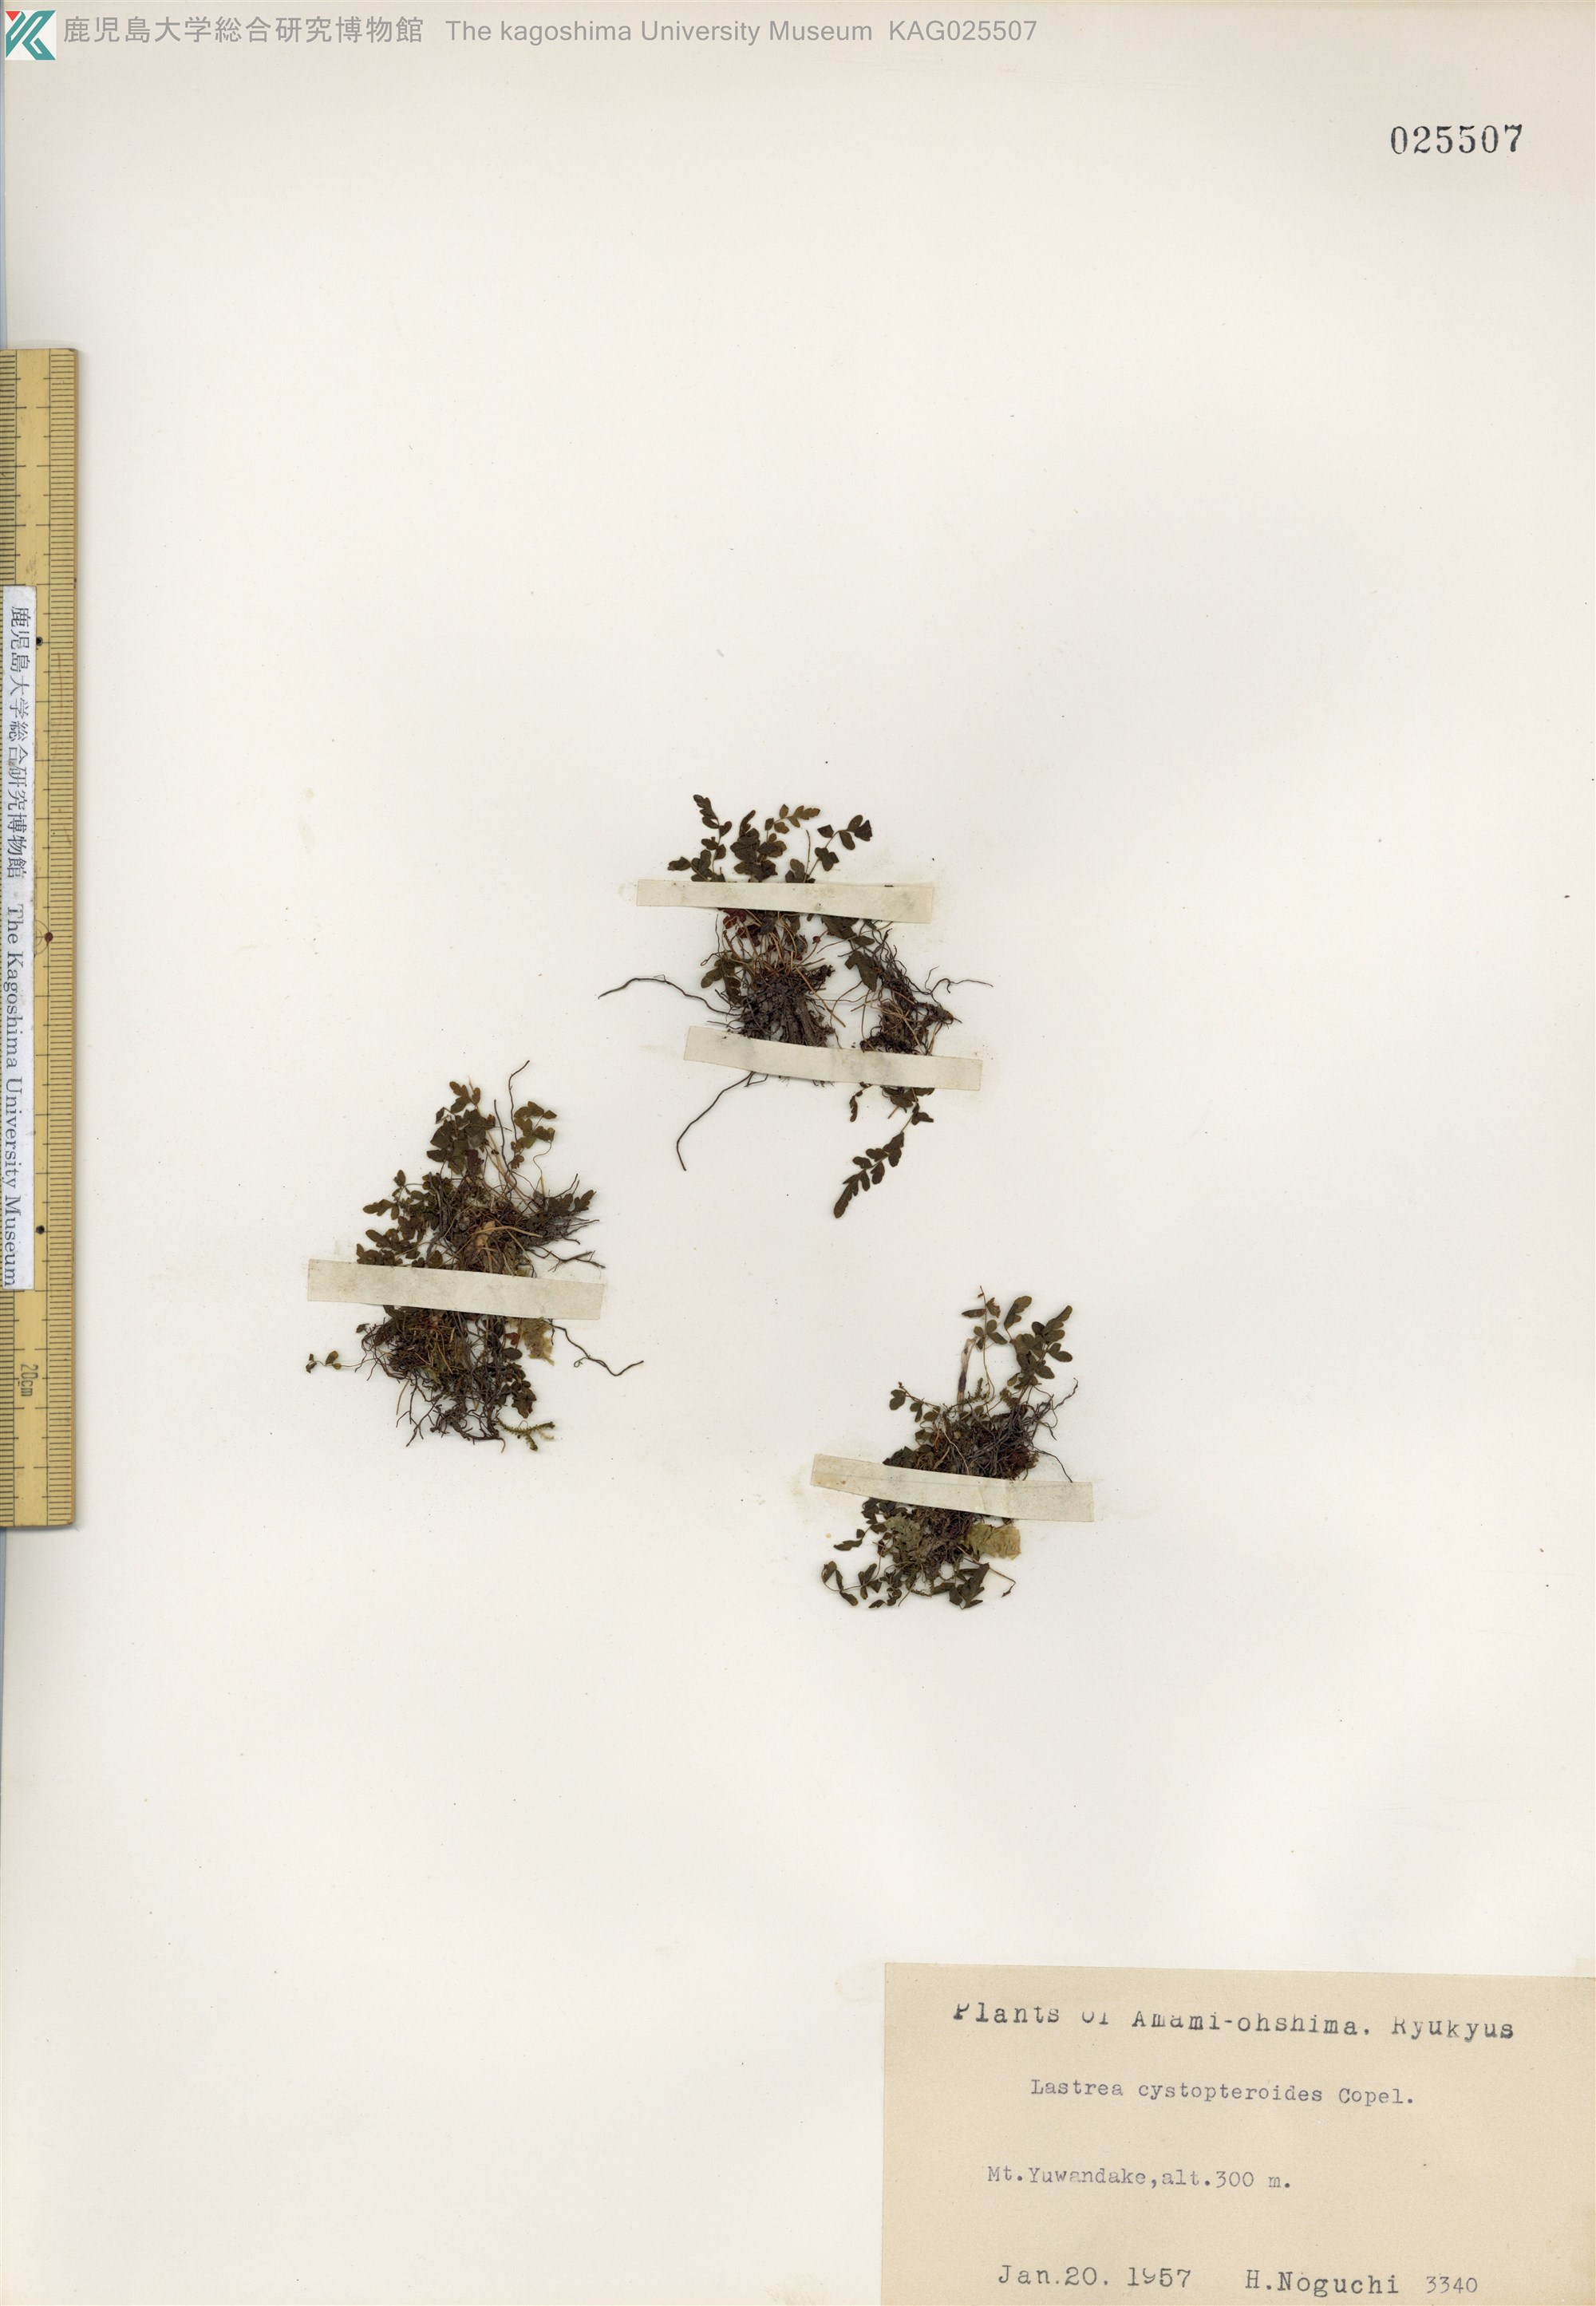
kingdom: Plantae
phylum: Tracheophyta
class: Polypodiopsida
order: Polypodiales
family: Thelypteridaceae
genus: Amauropelta
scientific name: Amauropelta cystopteroides
